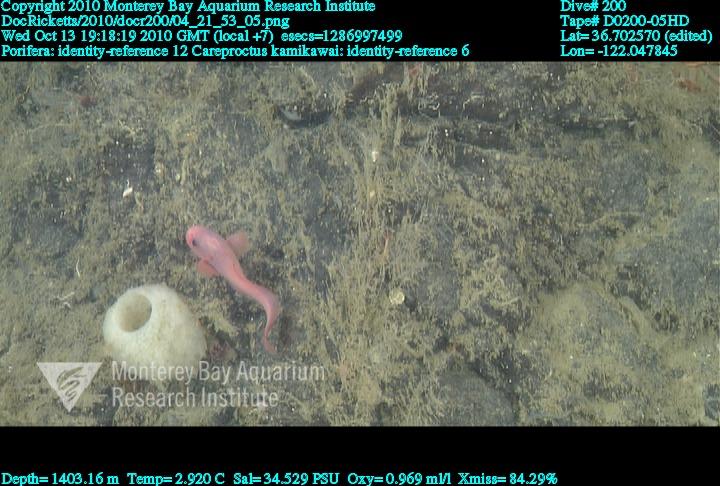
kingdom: Animalia
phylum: Porifera
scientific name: Porifera
